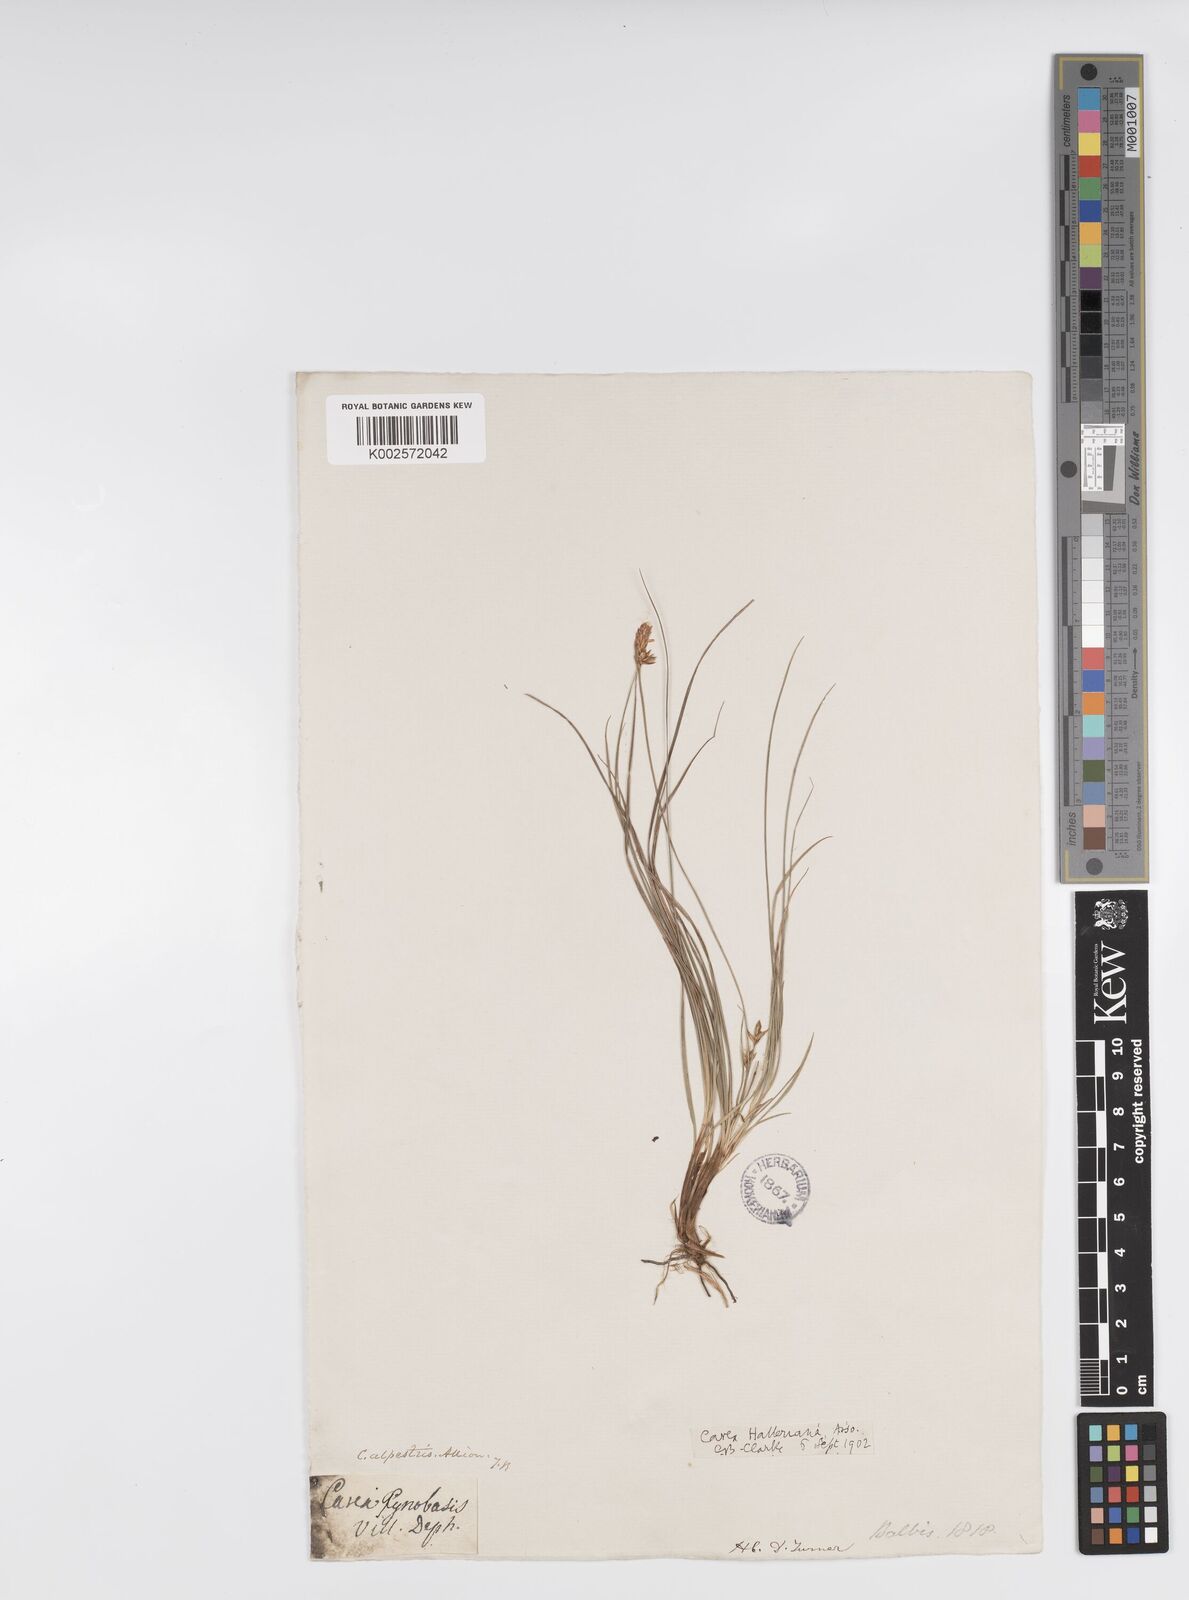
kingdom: Plantae
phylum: Tracheophyta
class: Liliopsida
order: Poales
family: Cyperaceae
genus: Carex
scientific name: Carex halleriana
